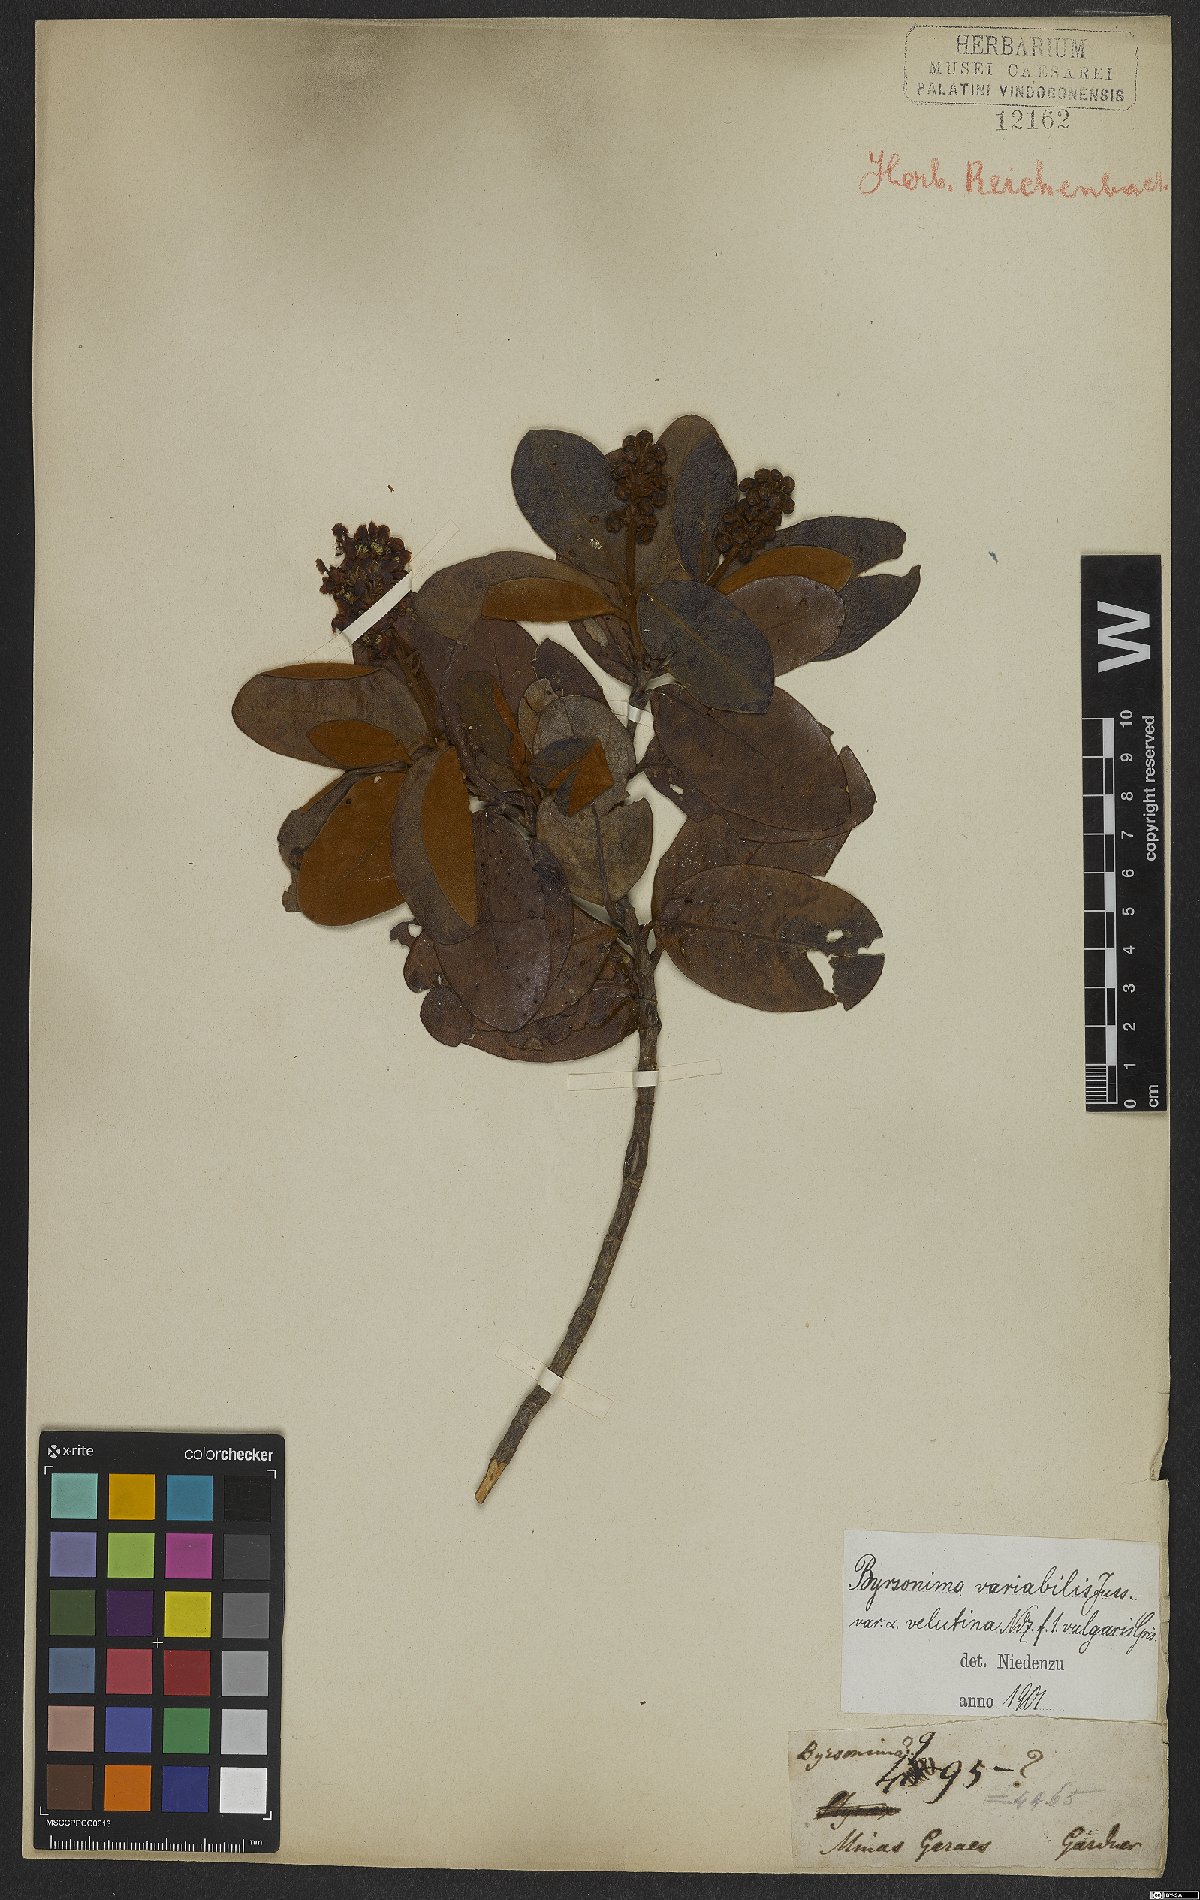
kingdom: Plantae
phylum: Tracheophyta
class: Magnoliopsida
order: Malpighiales
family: Malpighiaceae
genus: Byrsonima
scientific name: Byrsonima variabilis
